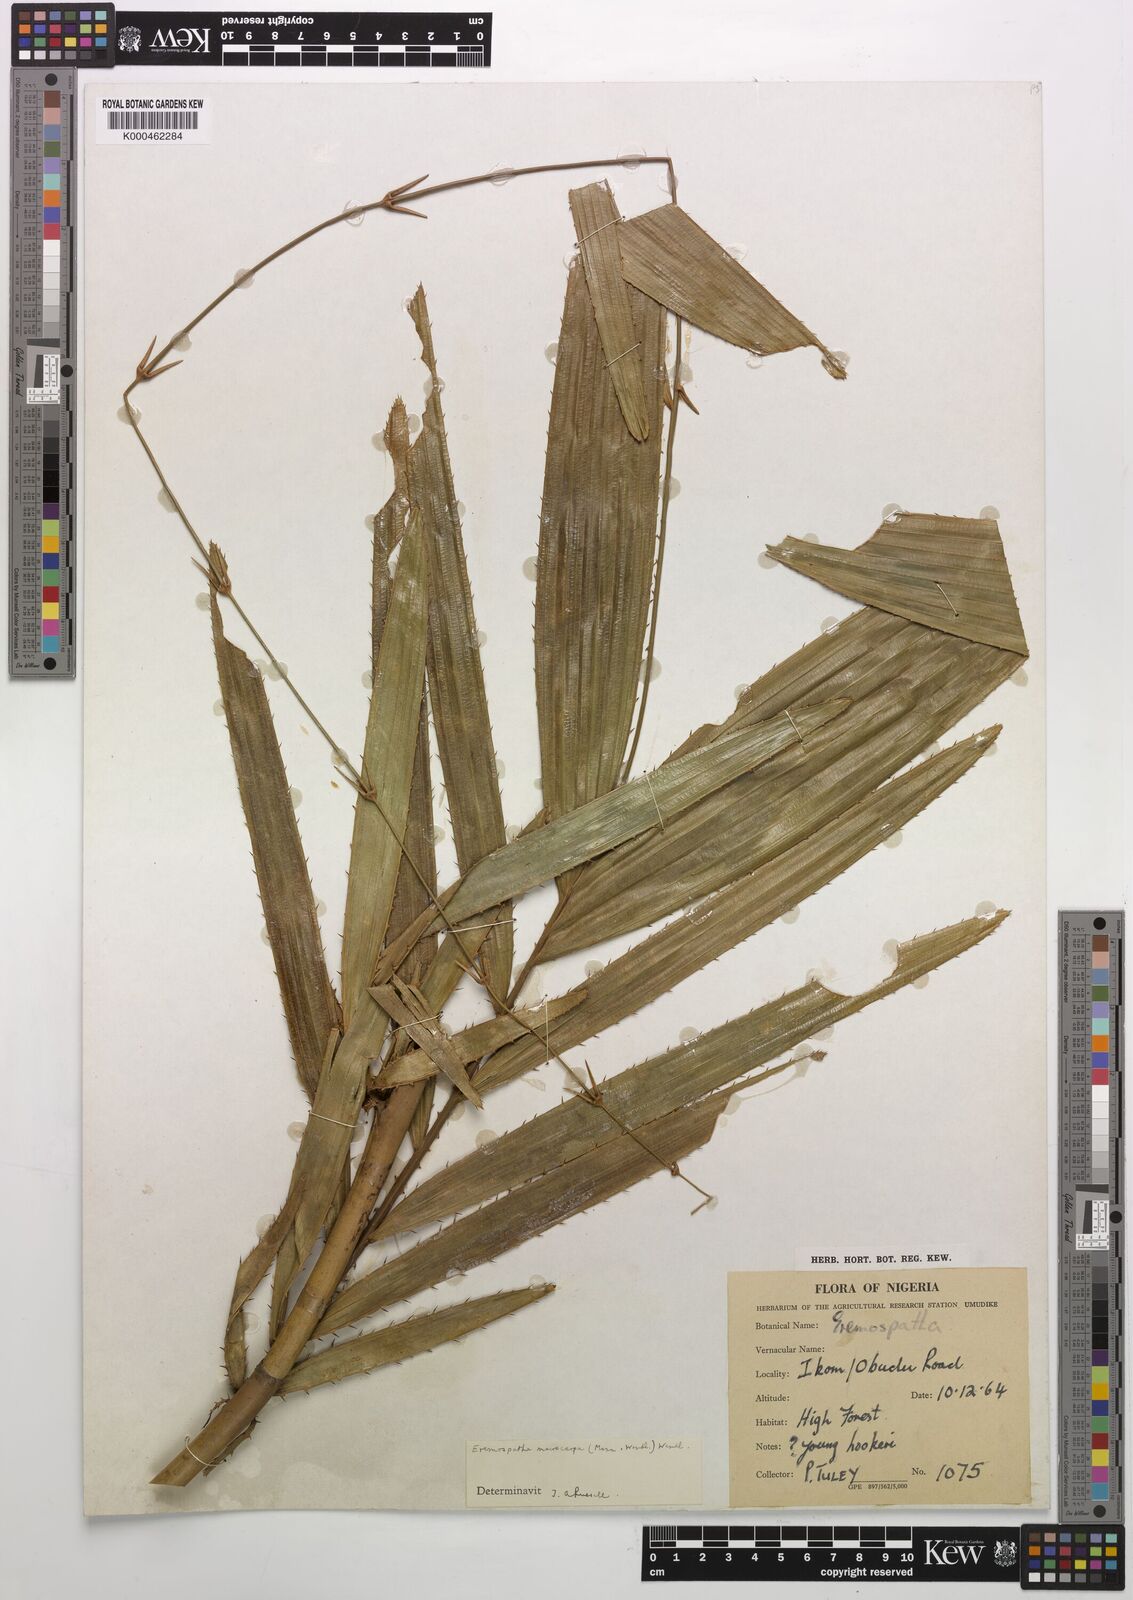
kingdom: Plantae
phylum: Tracheophyta
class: Liliopsida
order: Arecales
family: Arecaceae
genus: Eremospatha
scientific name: Eremospatha
